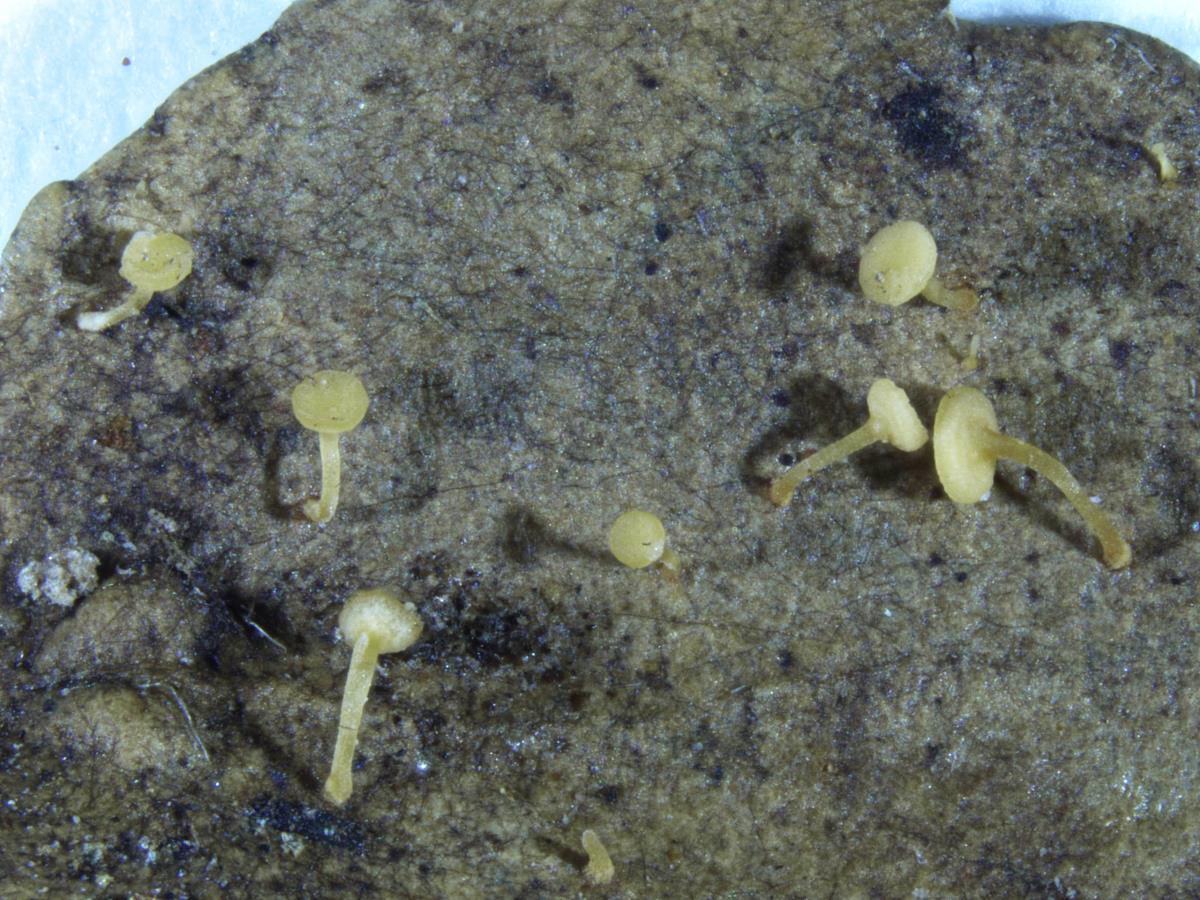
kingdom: Fungi
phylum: Ascomycota
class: Leotiomycetes
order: Helotiales
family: Helotiaceae
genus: Hymenoscyphus
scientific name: Hymenoscyphus
